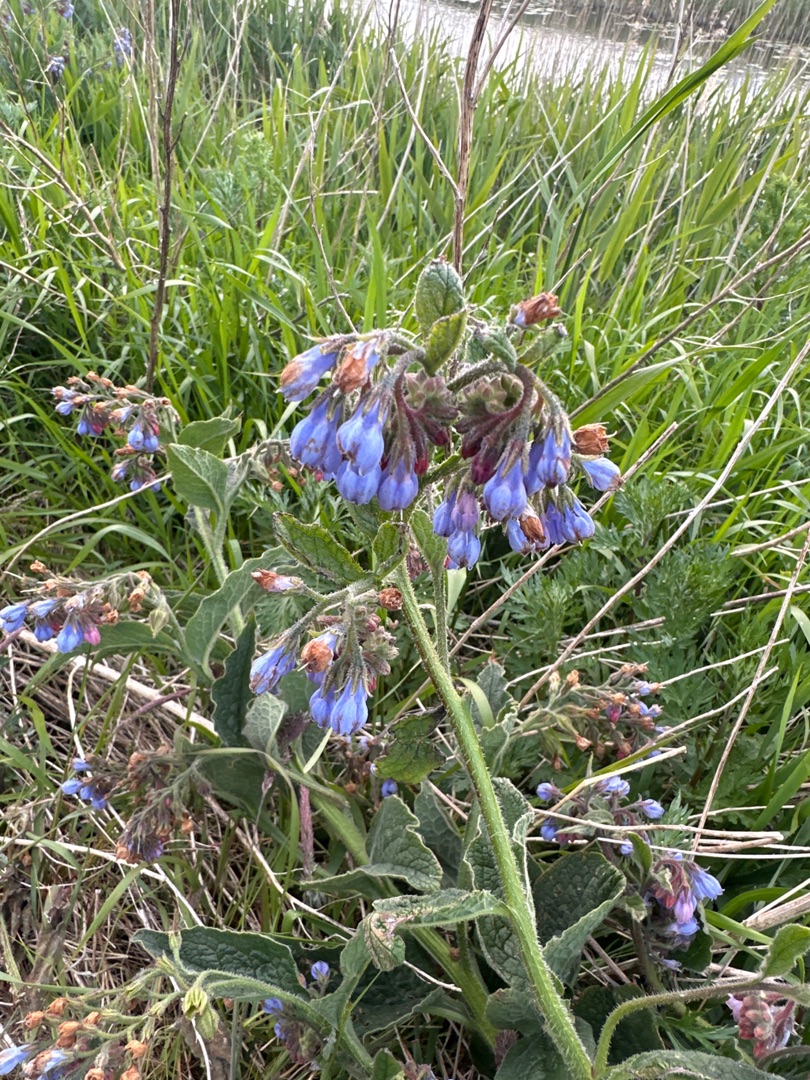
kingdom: Plantae
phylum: Tracheophyta
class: Magnoliopsida
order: Boraginales
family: Boraginaceae
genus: Symphytum
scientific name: Symphytum uplandicum
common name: Foder-kulsukker
